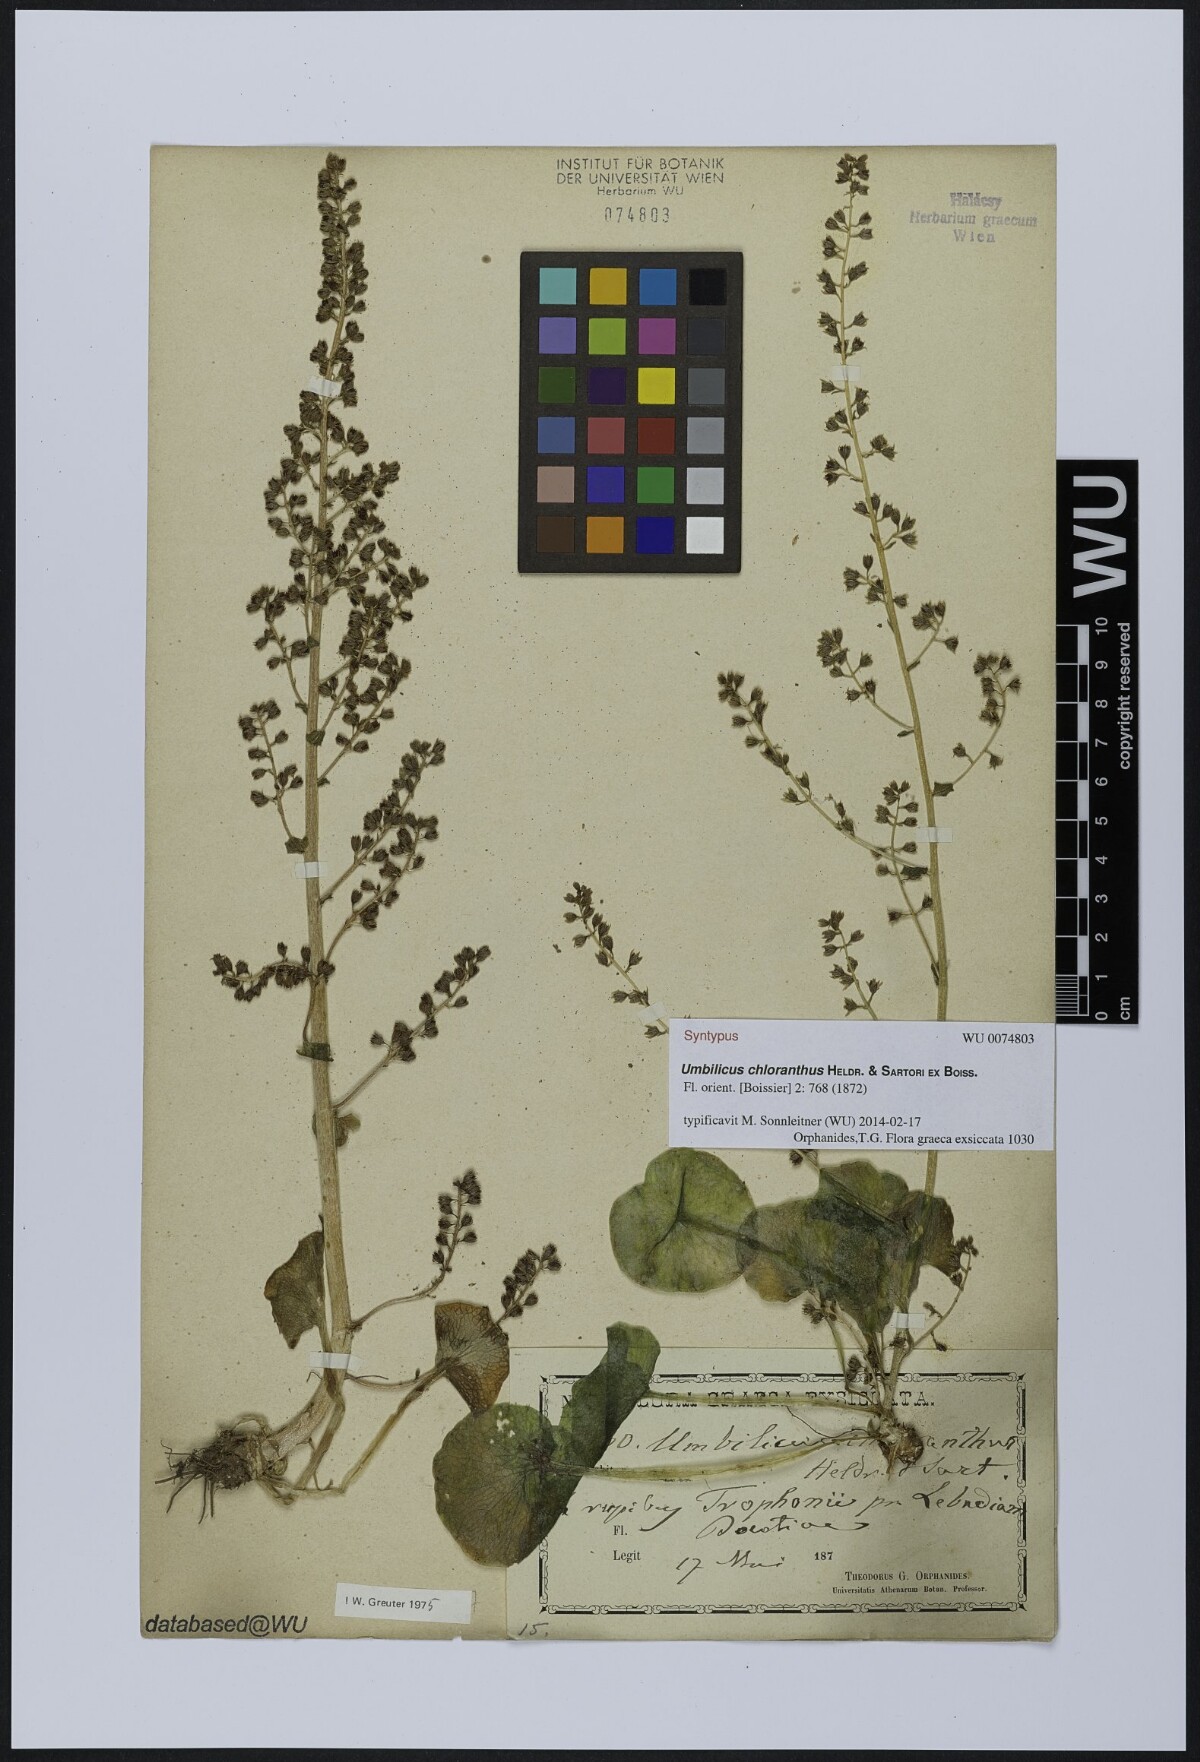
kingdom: Plantae
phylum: Tracheophyta
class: Magnoliopsida
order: Saxifragales
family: Crassulaceae
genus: Umbilicus
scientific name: Umbilicus chloranthus
